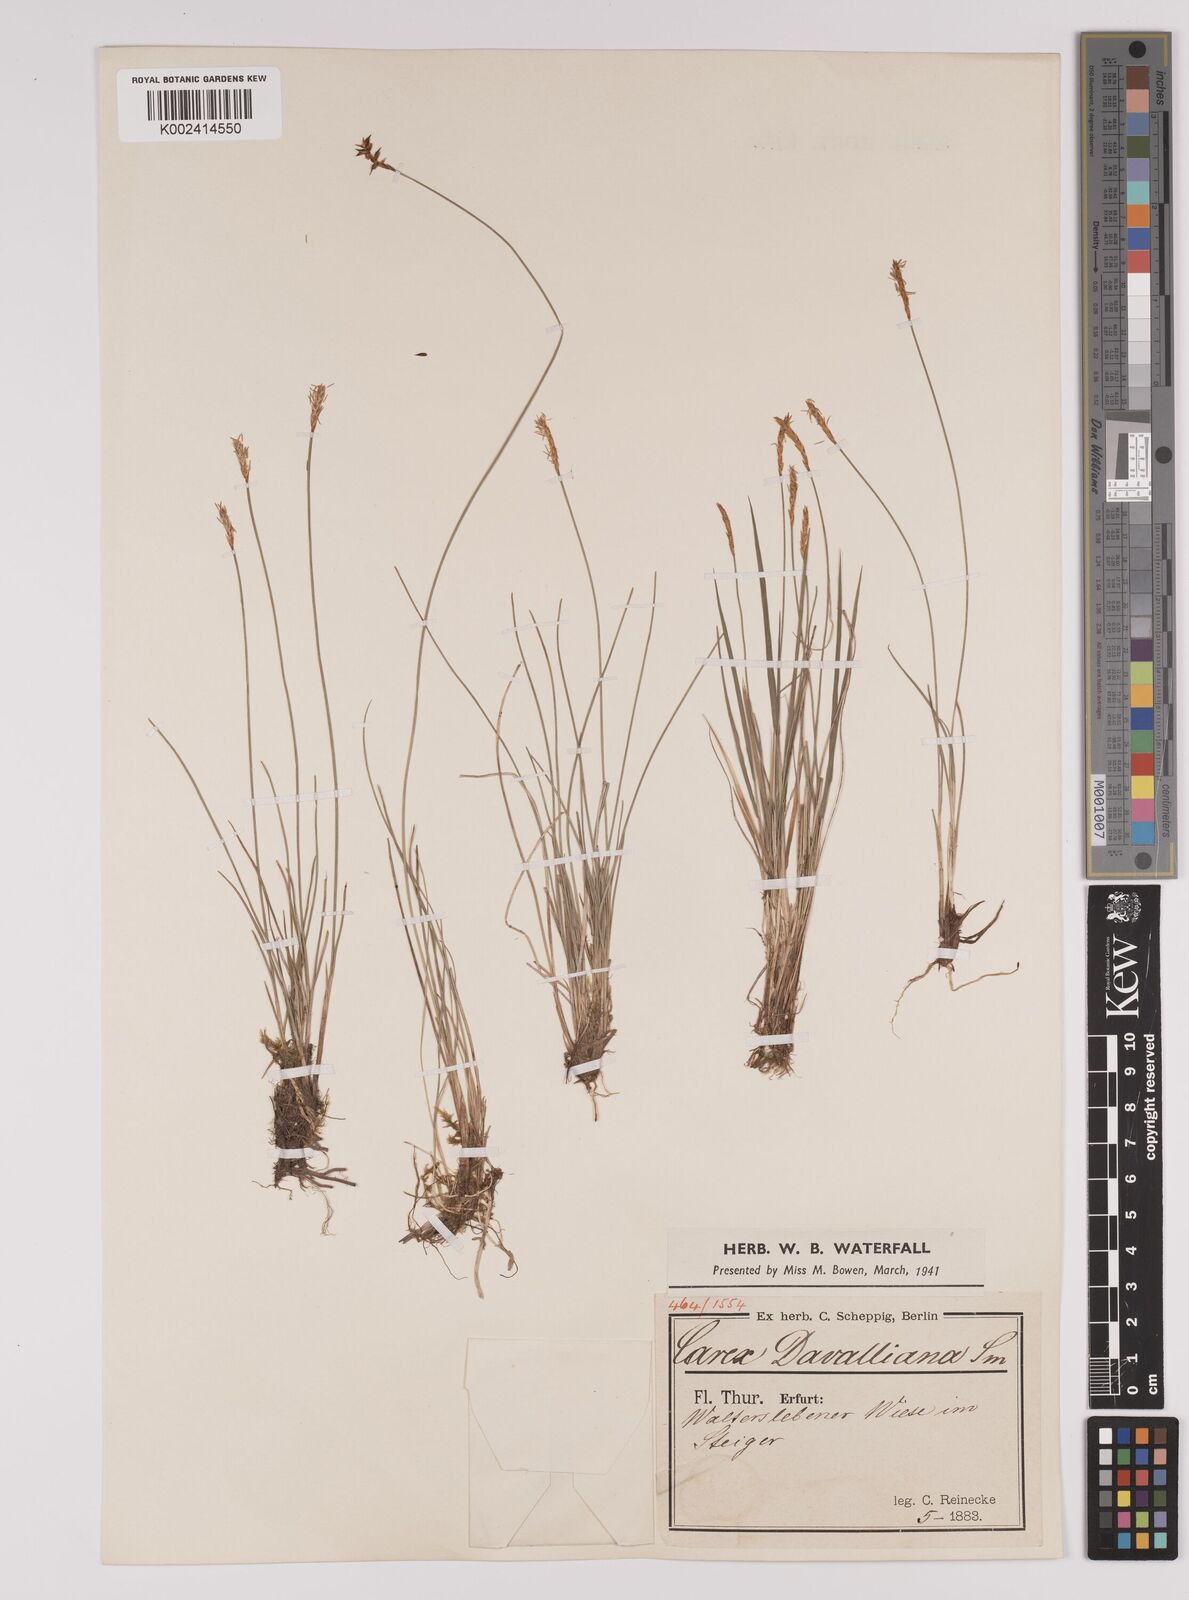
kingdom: Plantae
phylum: Tracheophyta
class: Liliopsida
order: Poales
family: Cyperaceae
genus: Carex
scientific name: Carex davalliana
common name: Davall's sedge
